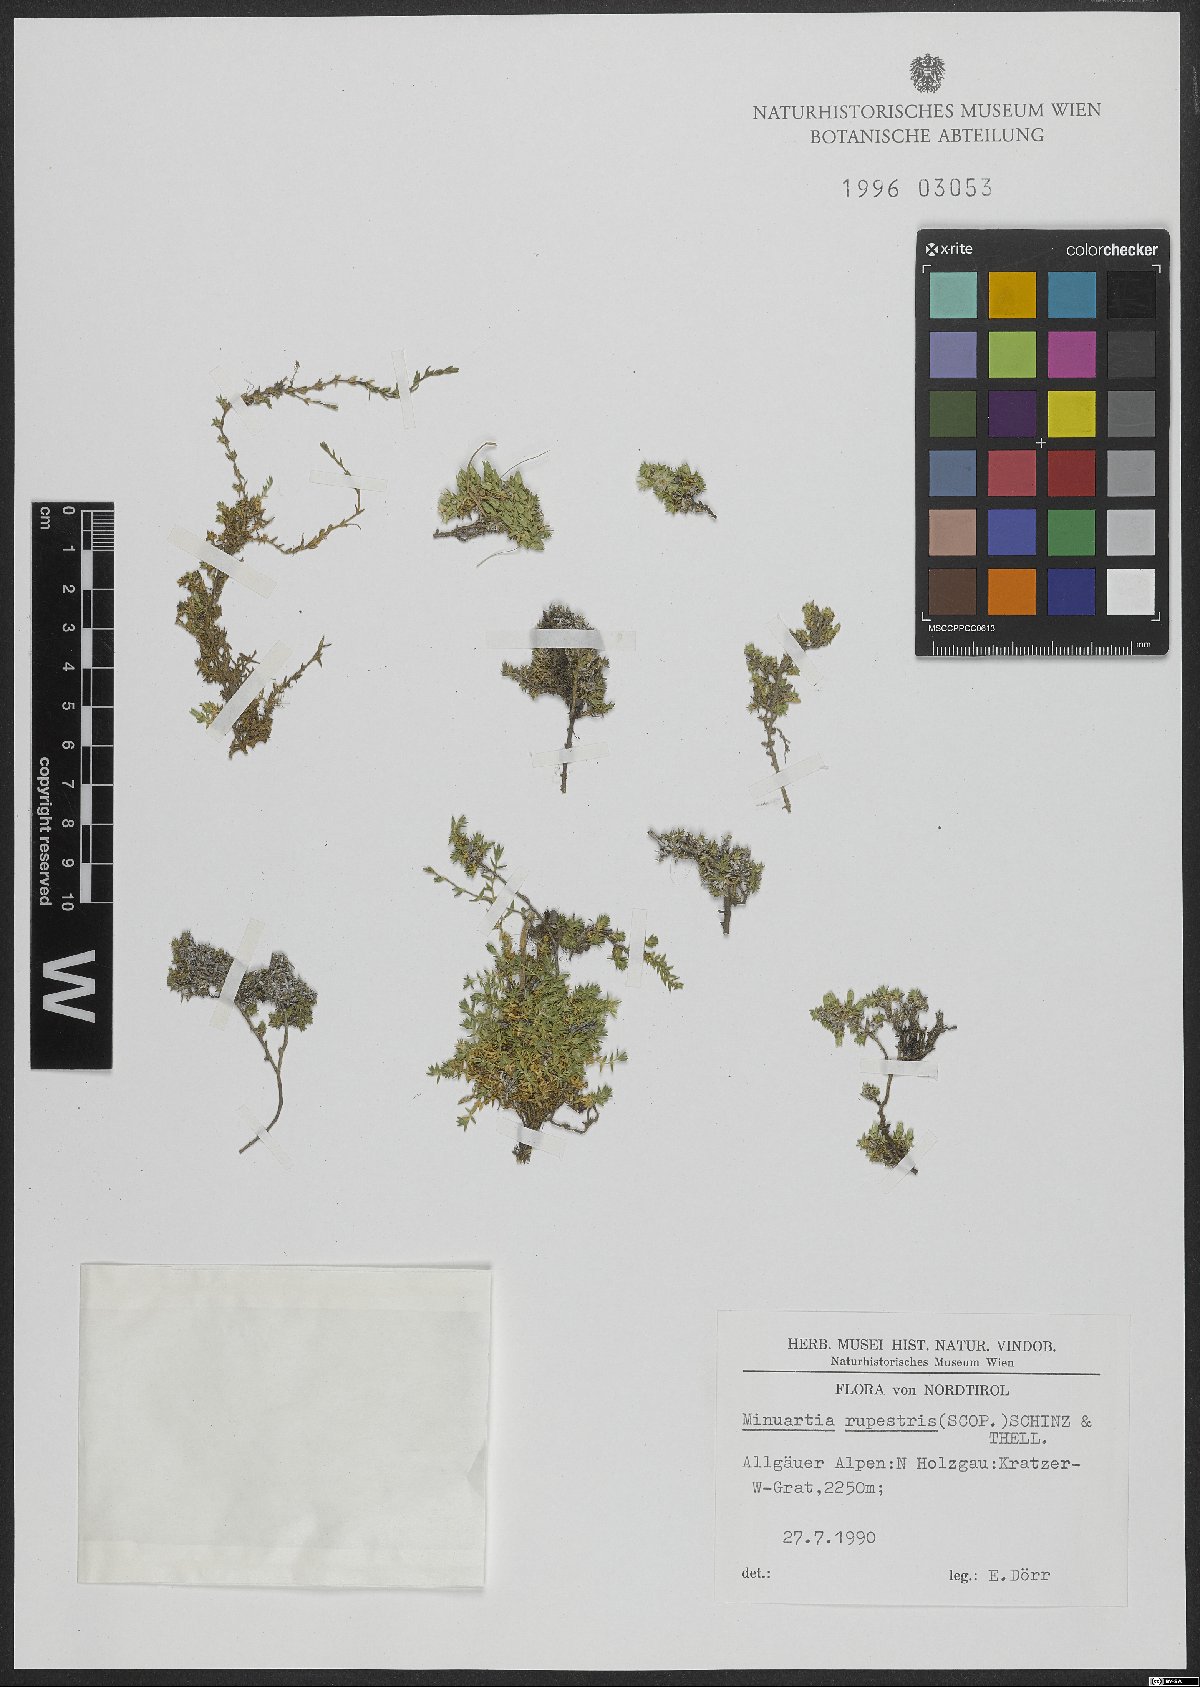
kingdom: Plantae
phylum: Tracheophyta
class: Magnoliopsida
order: Caryophyllales
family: Caryophyllaceae
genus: Facchinia
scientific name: Facchinia rupestris
